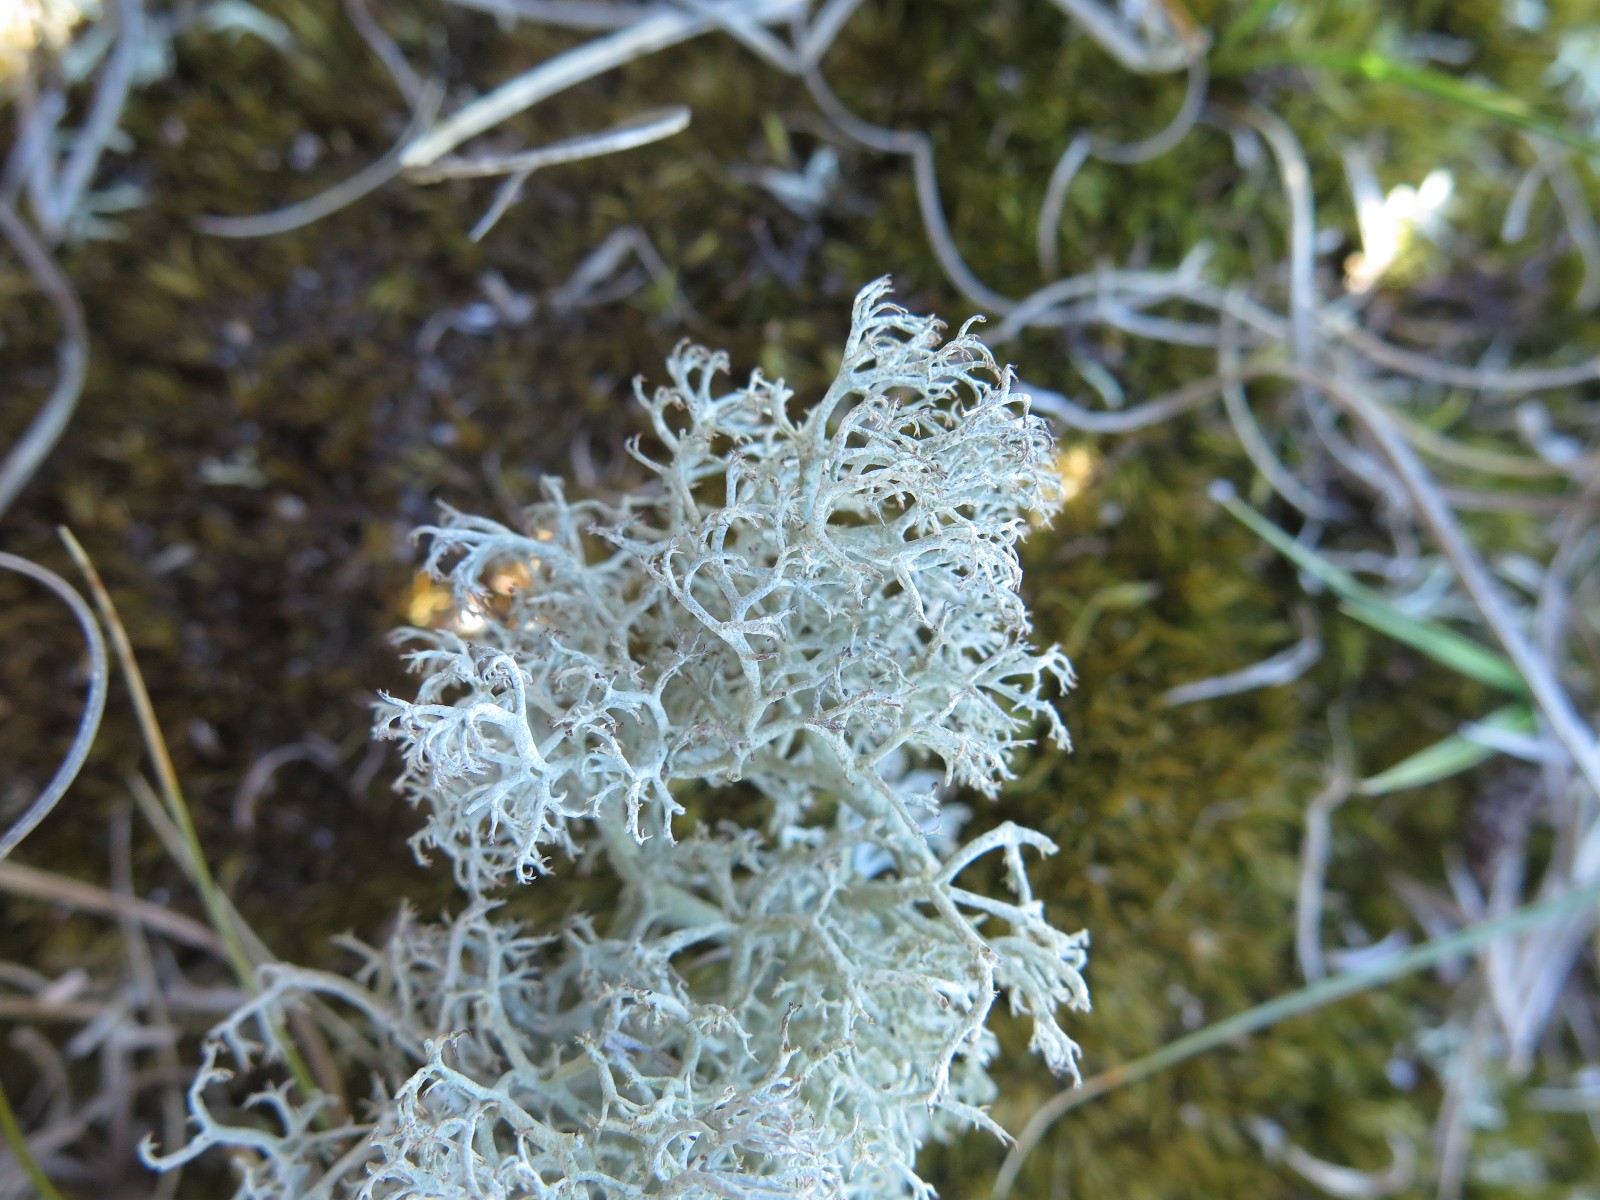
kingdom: Fungi
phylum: Ascomycota
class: Lecanoromycetes
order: Lecanorales
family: Cladoniaceae
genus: Cladonia
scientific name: Cladonia
